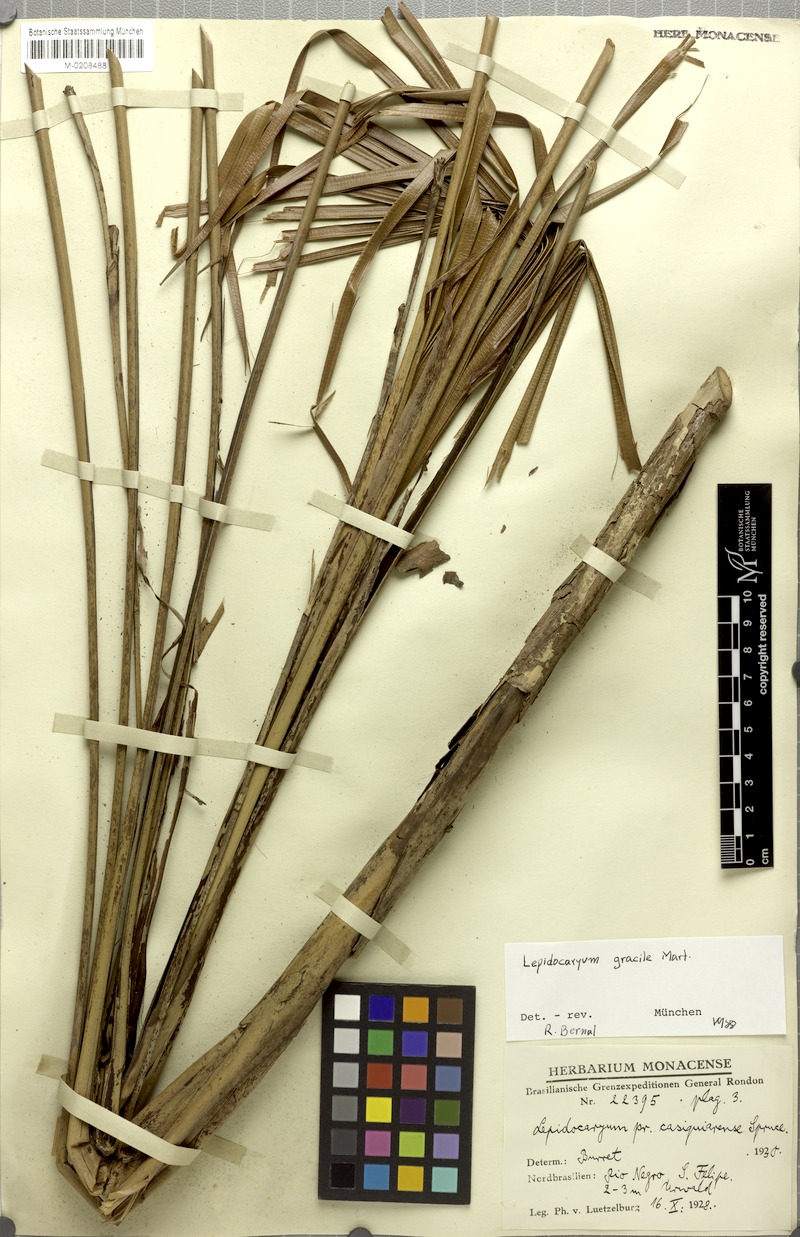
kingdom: Plantae
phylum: Tracheophyta
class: Liliopsida
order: Arecales
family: Arecaceae
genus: Lepidocaryum
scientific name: Lepidocaryum tenue
